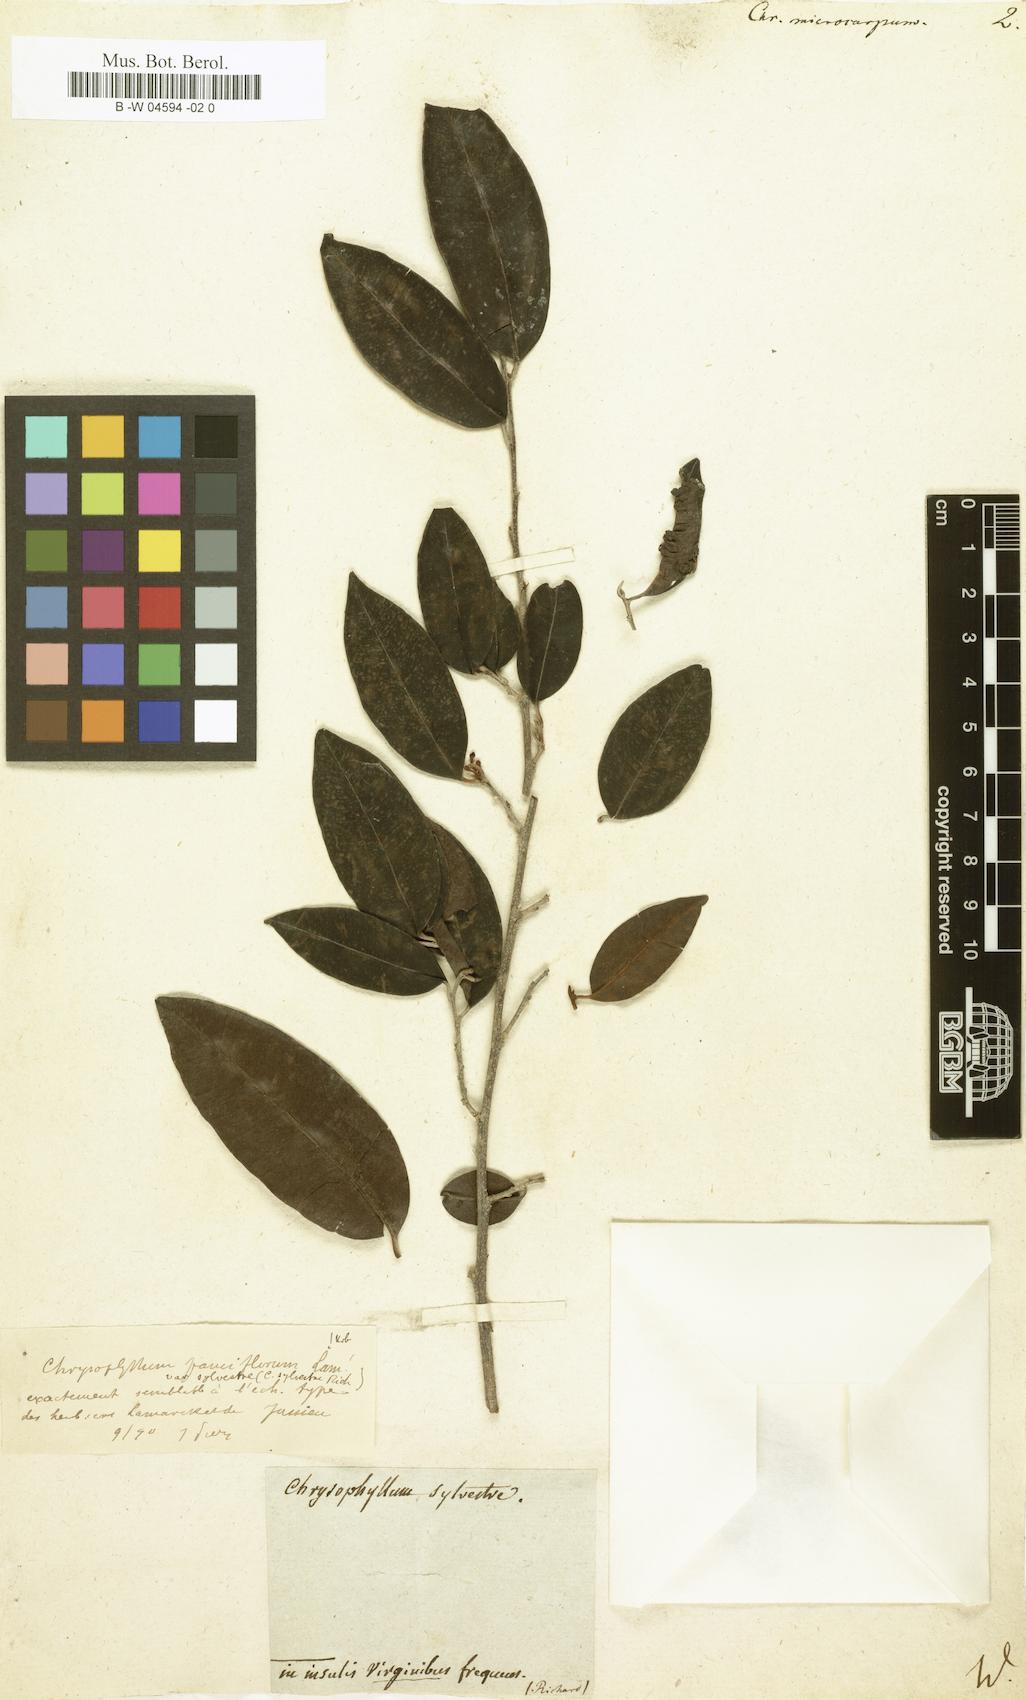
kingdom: Plantae
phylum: Tracheophyta
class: Magnoliopsida
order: Ericales
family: Sapotaceae
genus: Chrysophyllum
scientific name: Chrysophyllum argenteum
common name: Smooth star apple
